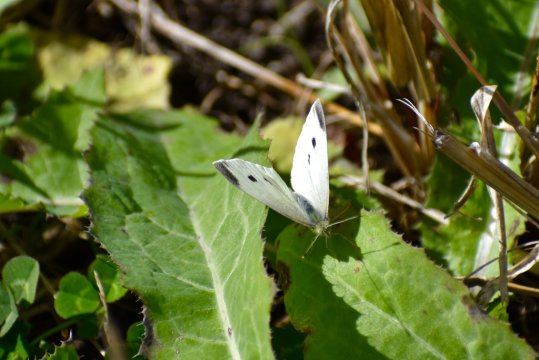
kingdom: Animalia
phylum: Arthropoda
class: Insecta
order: Lepidoptera
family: Pieridae
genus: Pieris
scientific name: Pieris rapae
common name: Cabbage White
